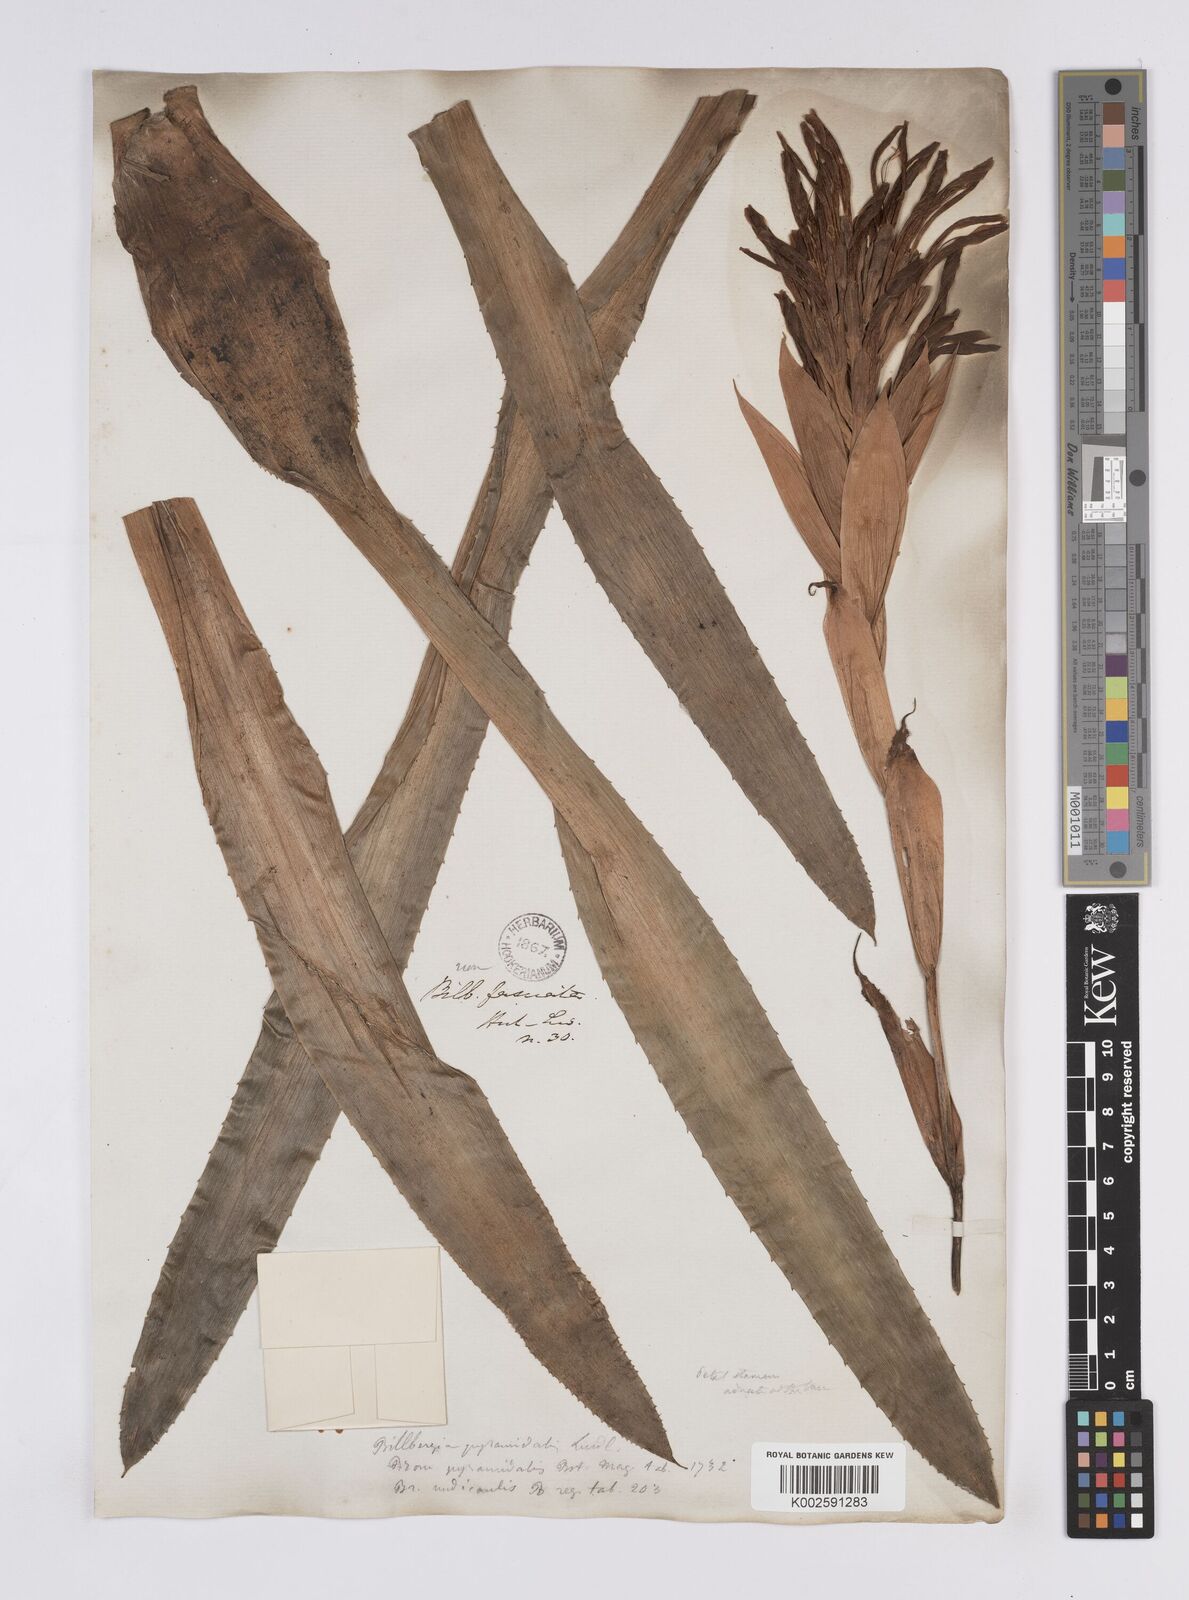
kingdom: Plantae
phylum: Tracheophyta
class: Liliopsida
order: Poales
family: Bromeliaceae
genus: Billbergia
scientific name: Billbergia pyramidalis
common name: Foolproofplant
